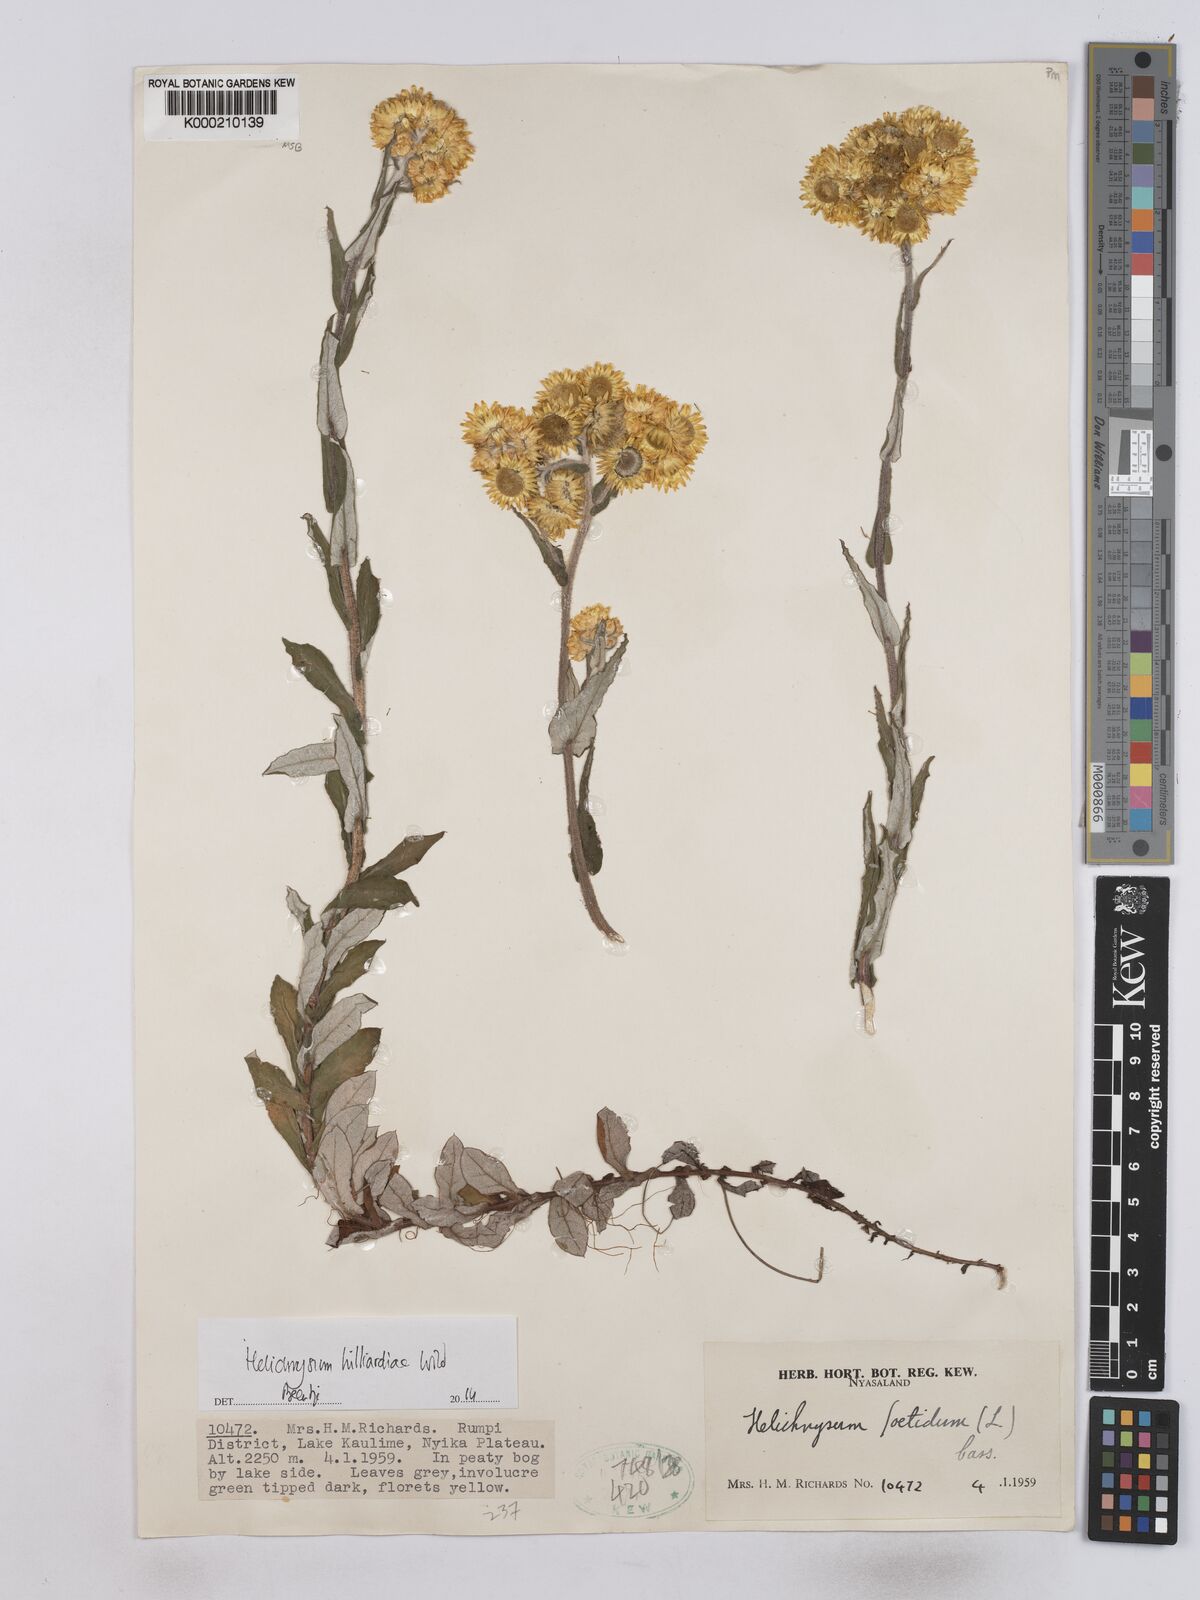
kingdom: Plantae
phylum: Tracheophyta
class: Magnoliopsida
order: Asterales
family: Asteraceae
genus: Helichrysum
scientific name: Helichrysum hilliardiae
